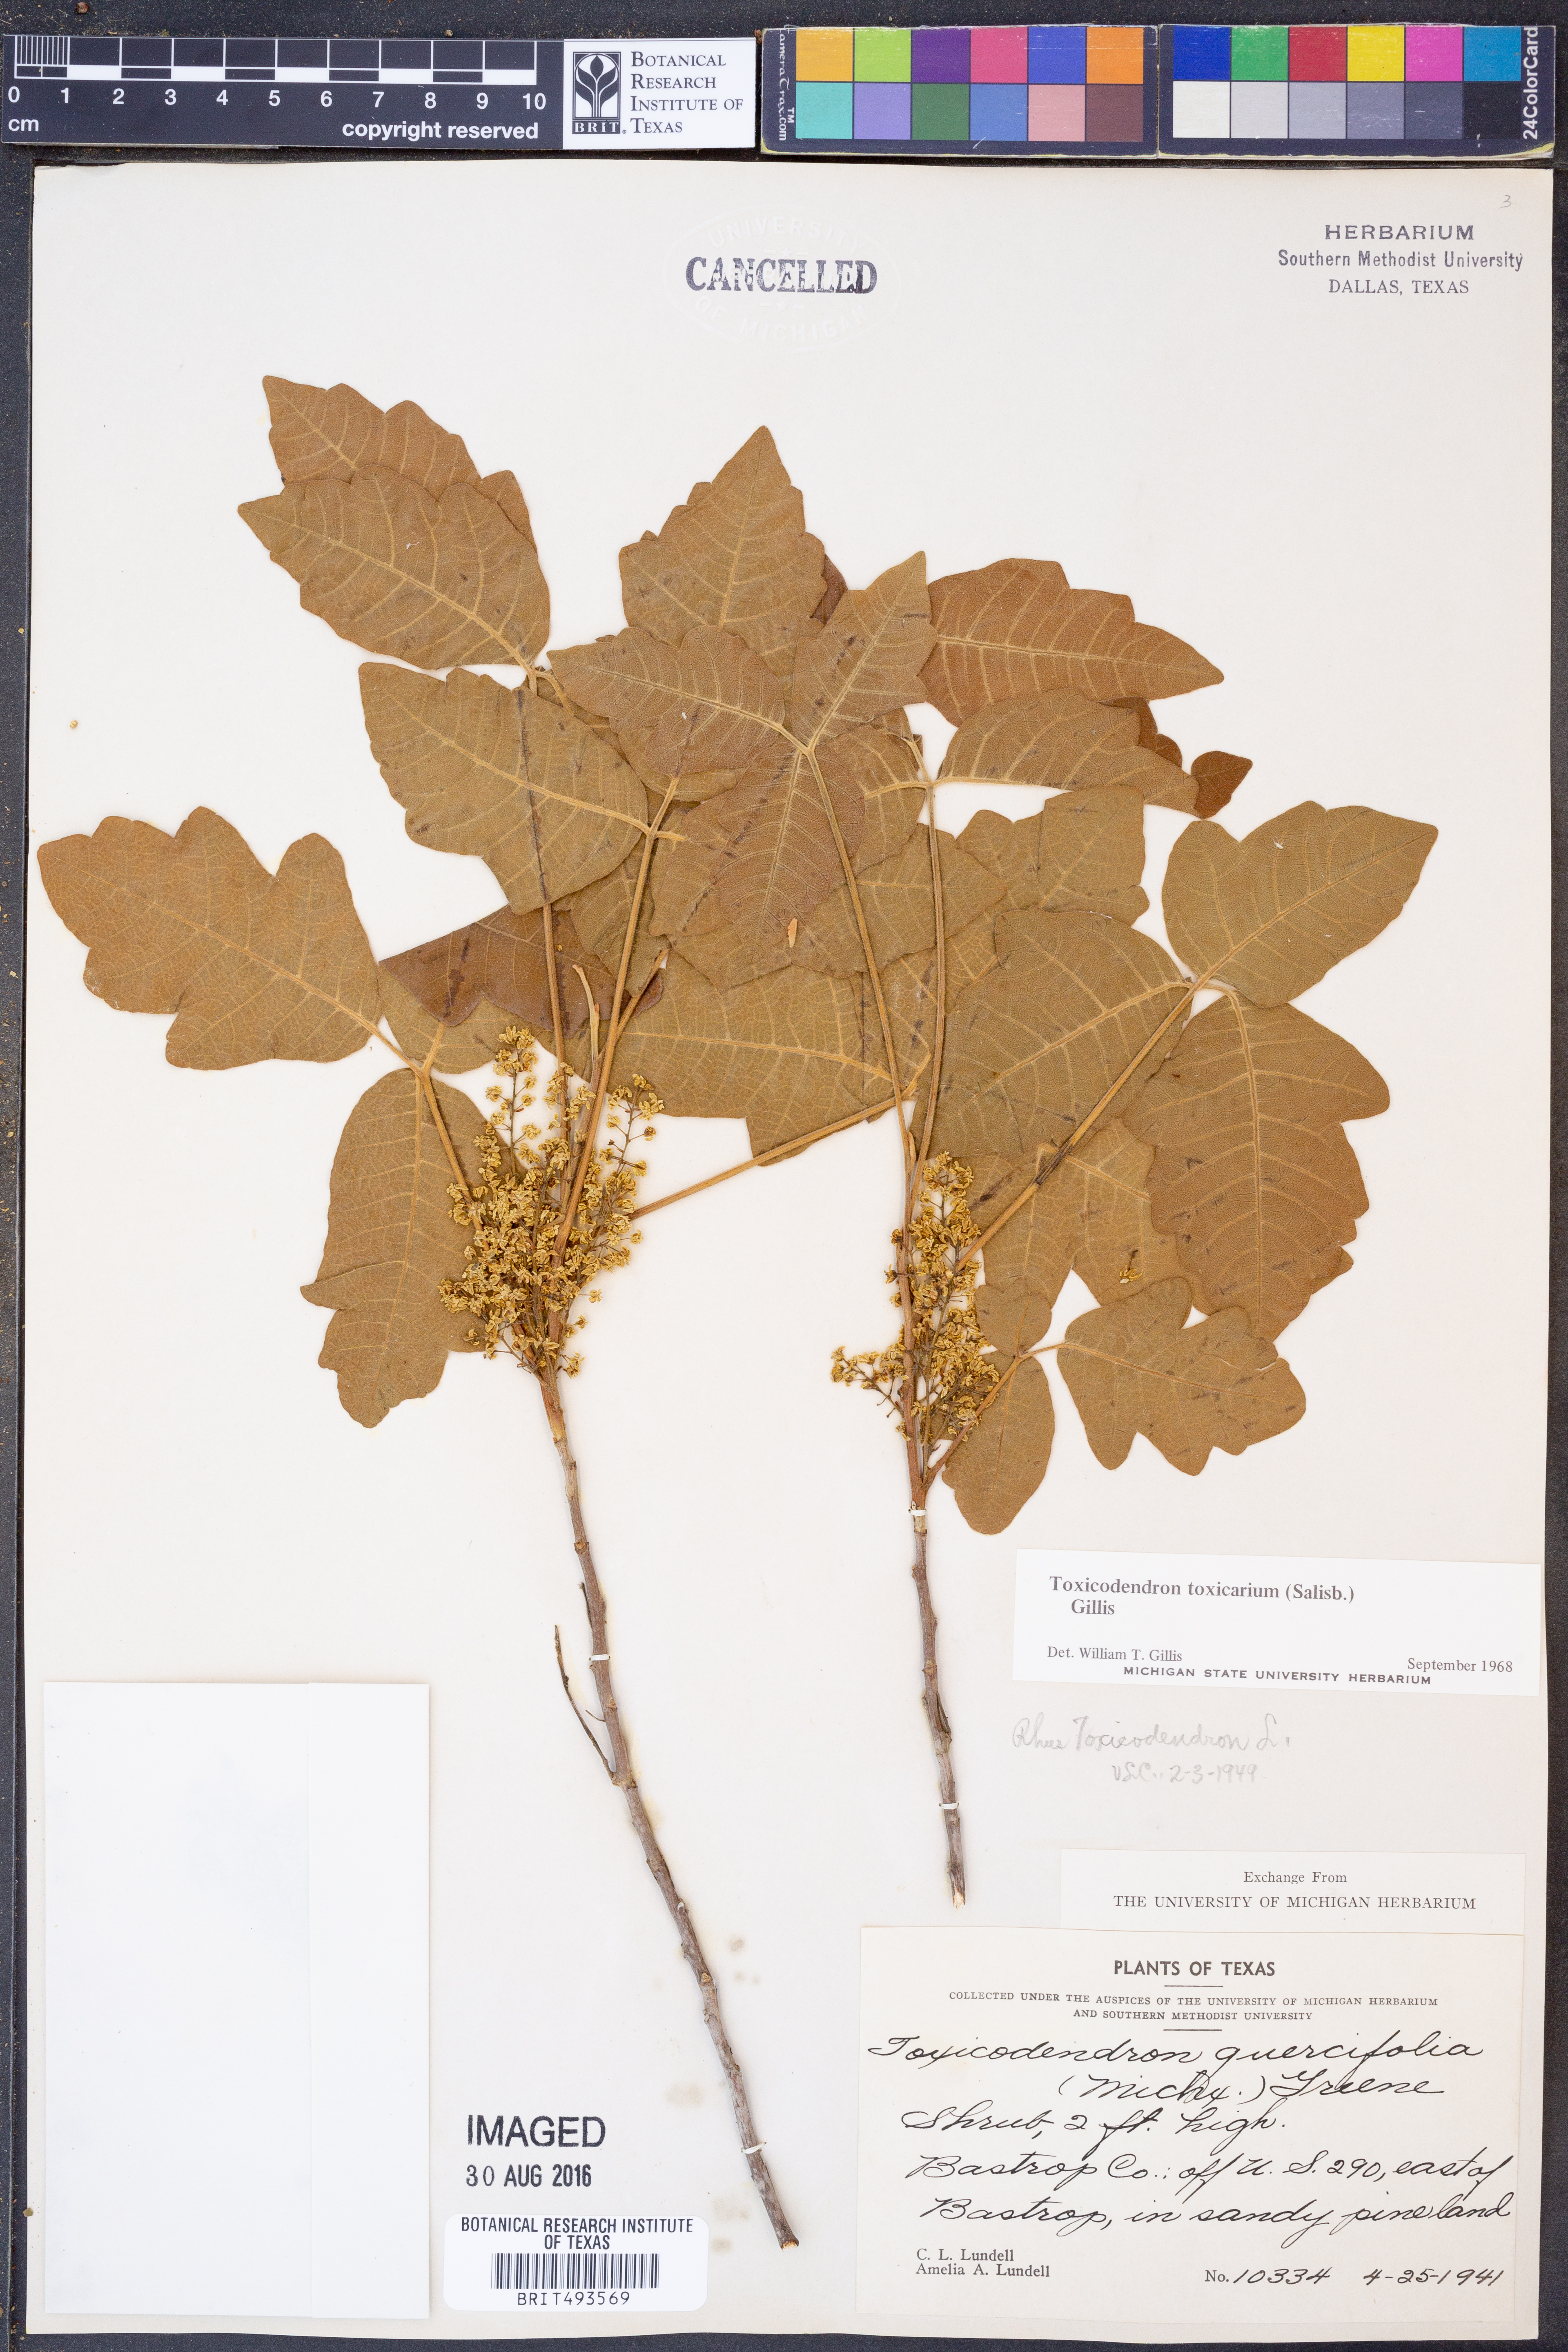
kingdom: Plantae
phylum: Tracheophyta
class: Magnoliopsida
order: Sapindales
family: Anacardiaceae
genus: Toxicodendron
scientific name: Toxicodendron pubescens
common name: Eastern poison-oak
